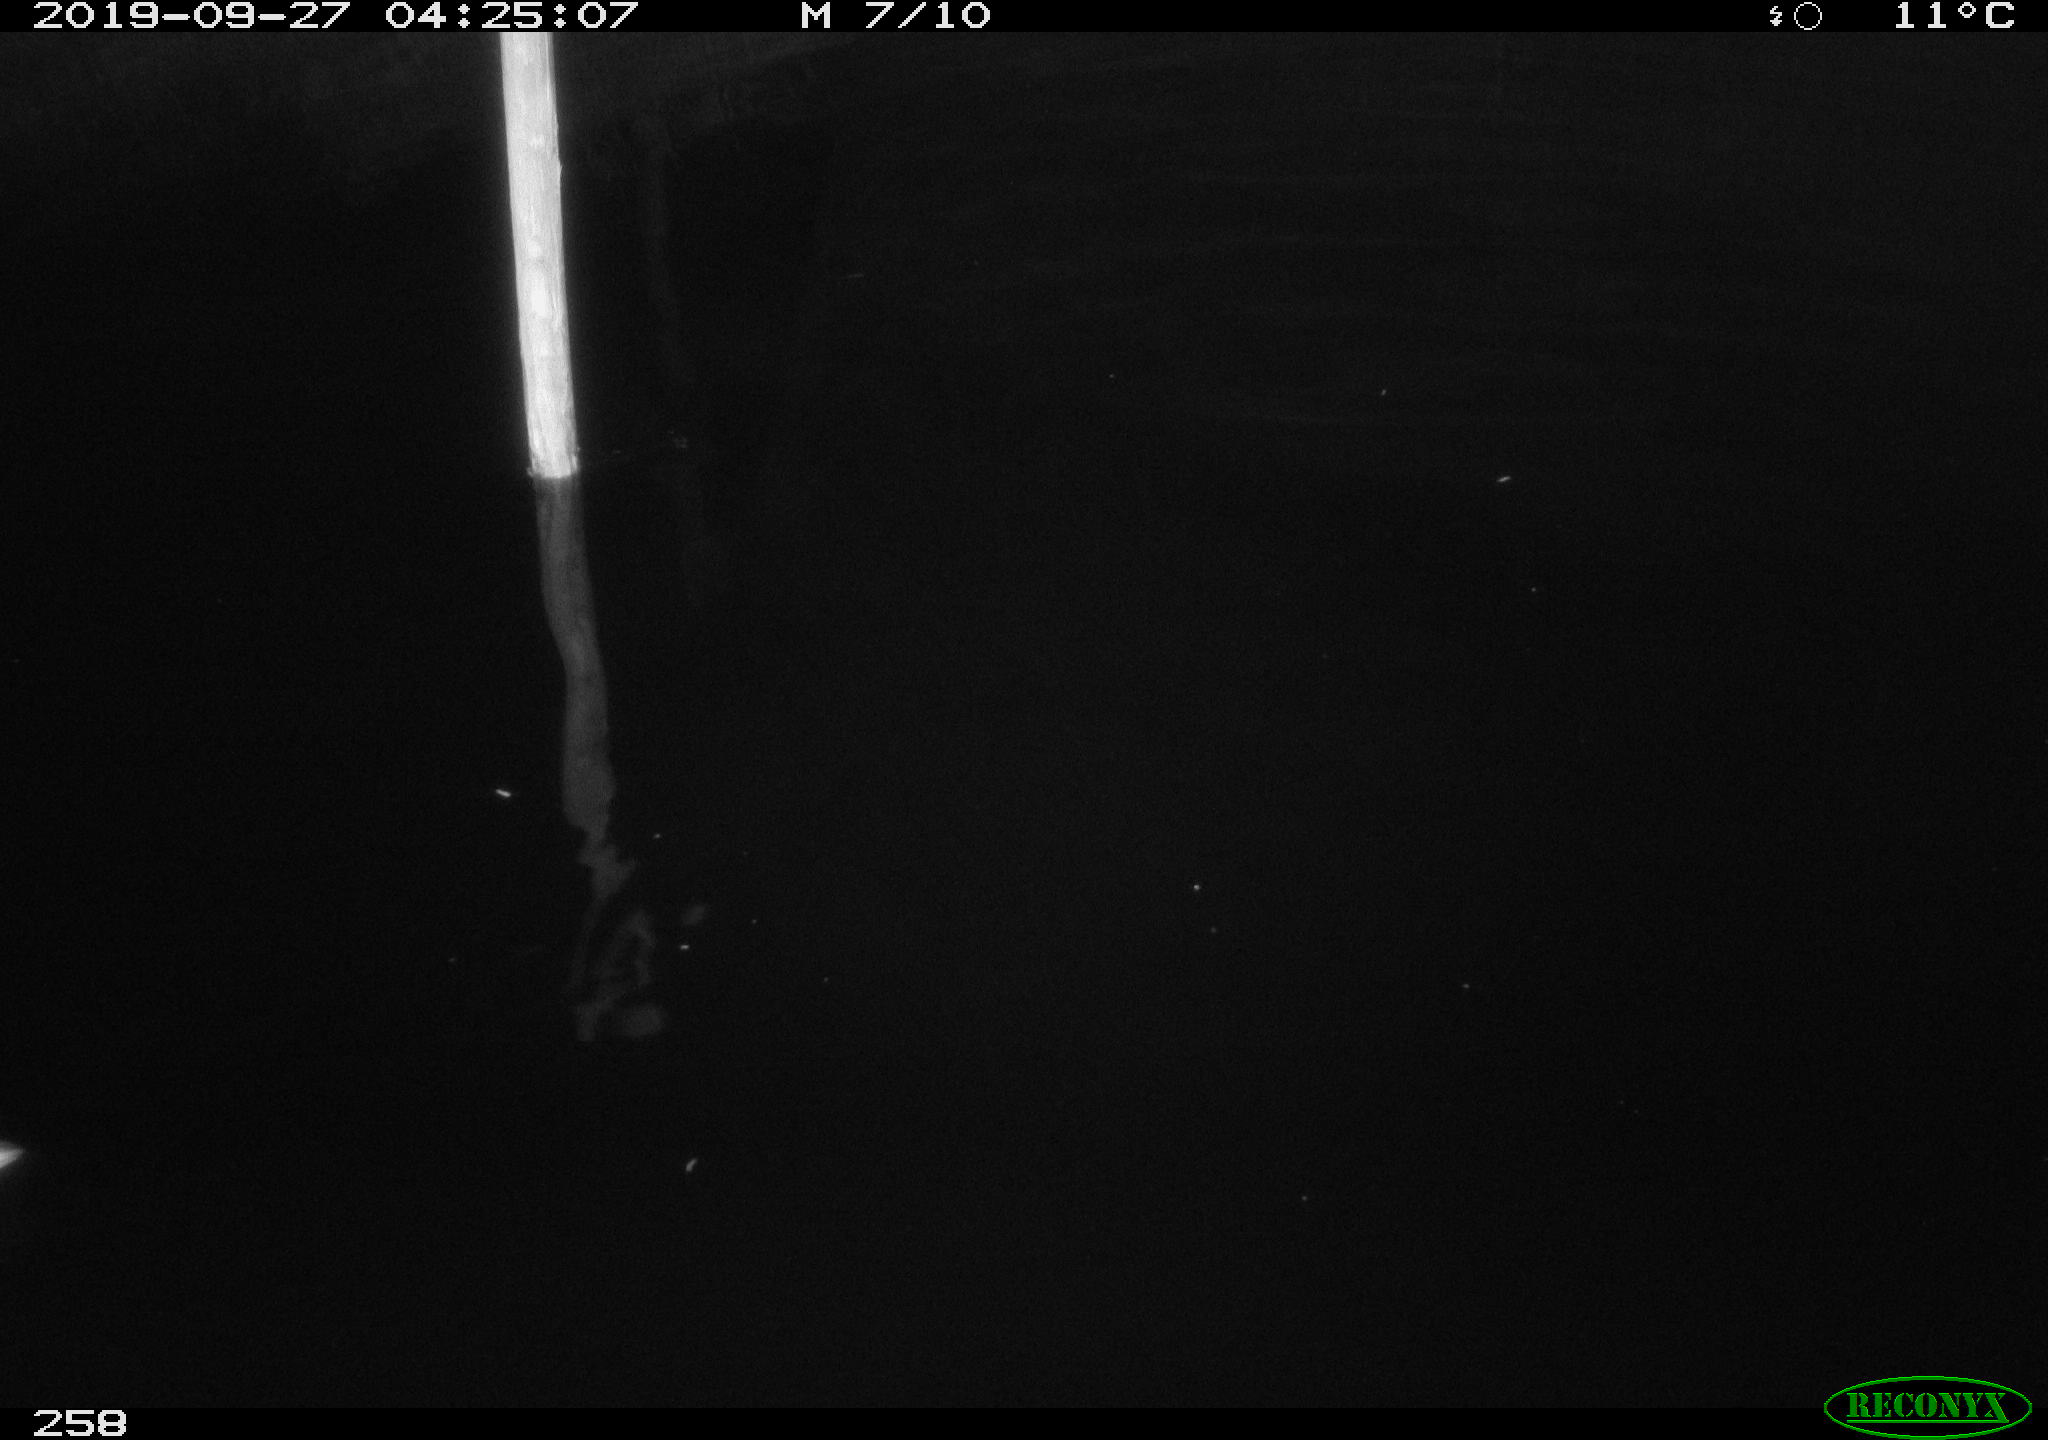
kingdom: Animalia
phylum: Chordata
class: Aves
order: Anseriformes
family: Anatidae
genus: Anas
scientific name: Anas platyrhynchos
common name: Mallard
